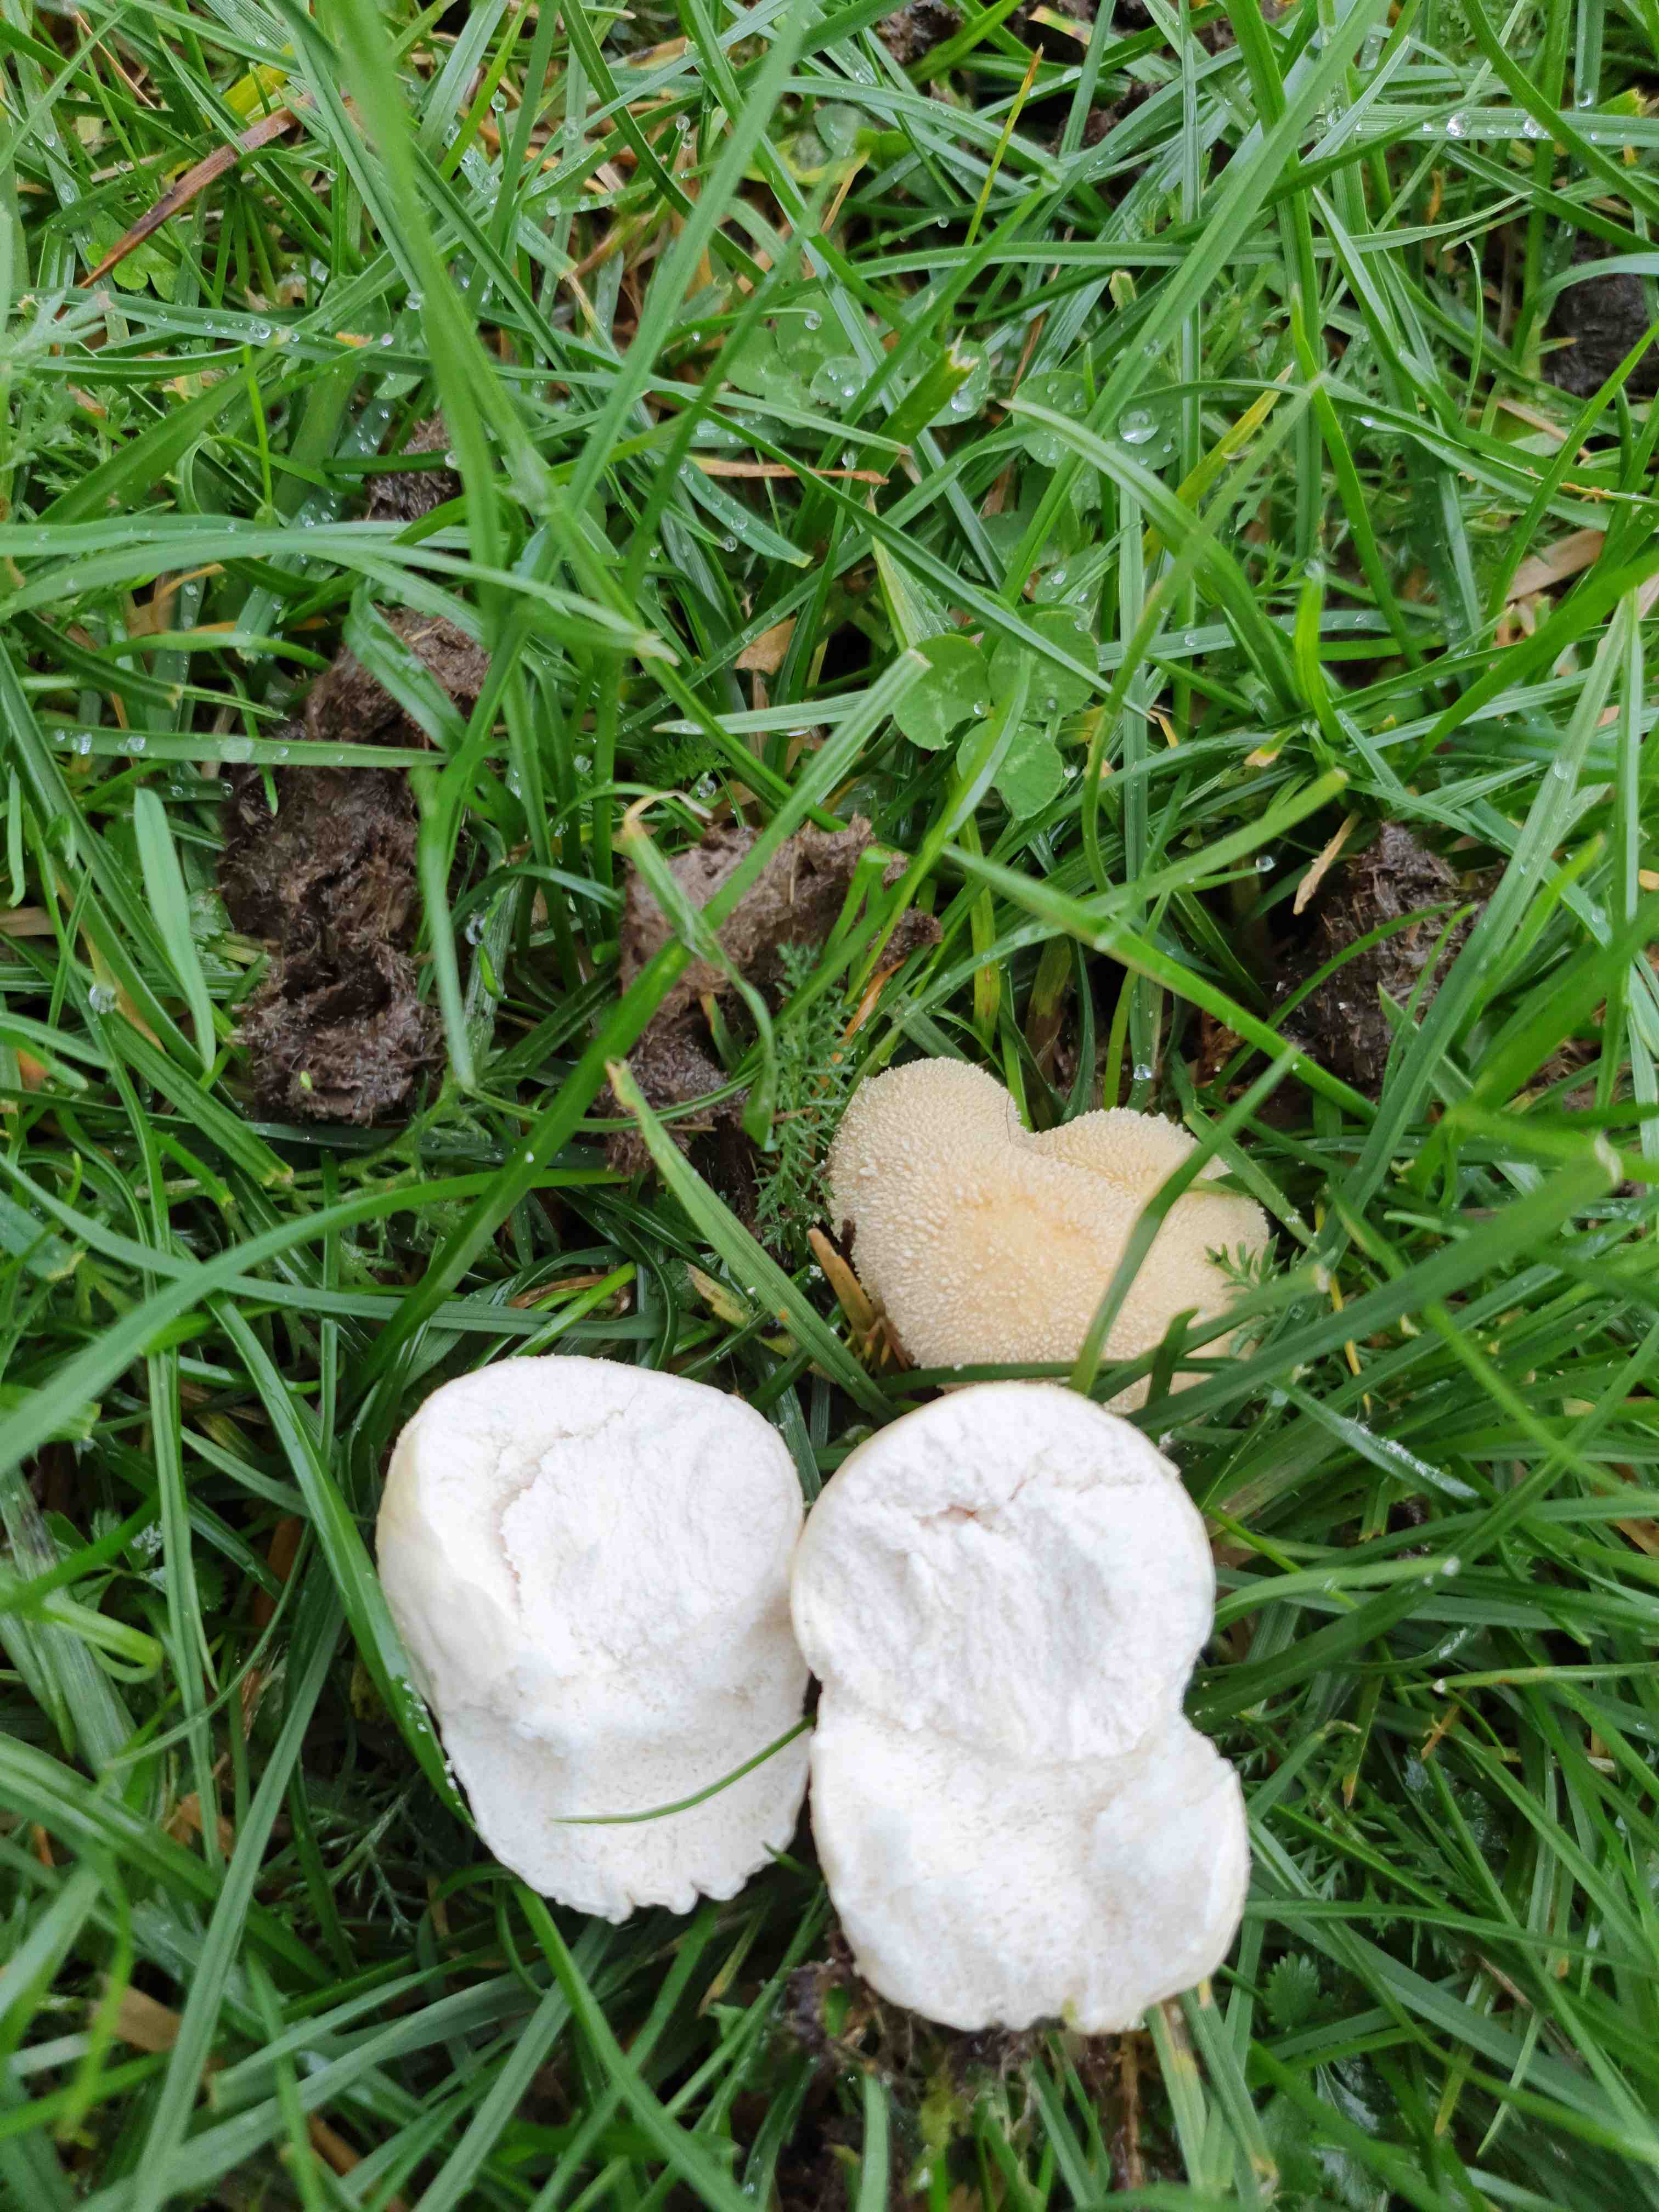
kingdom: Fungi
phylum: Basidiomycota
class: Agaricomycetes
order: Agaricales
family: Lycoperdaceae
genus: Lycoperdon
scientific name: Lycoperdon pratense
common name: flad støvbold
